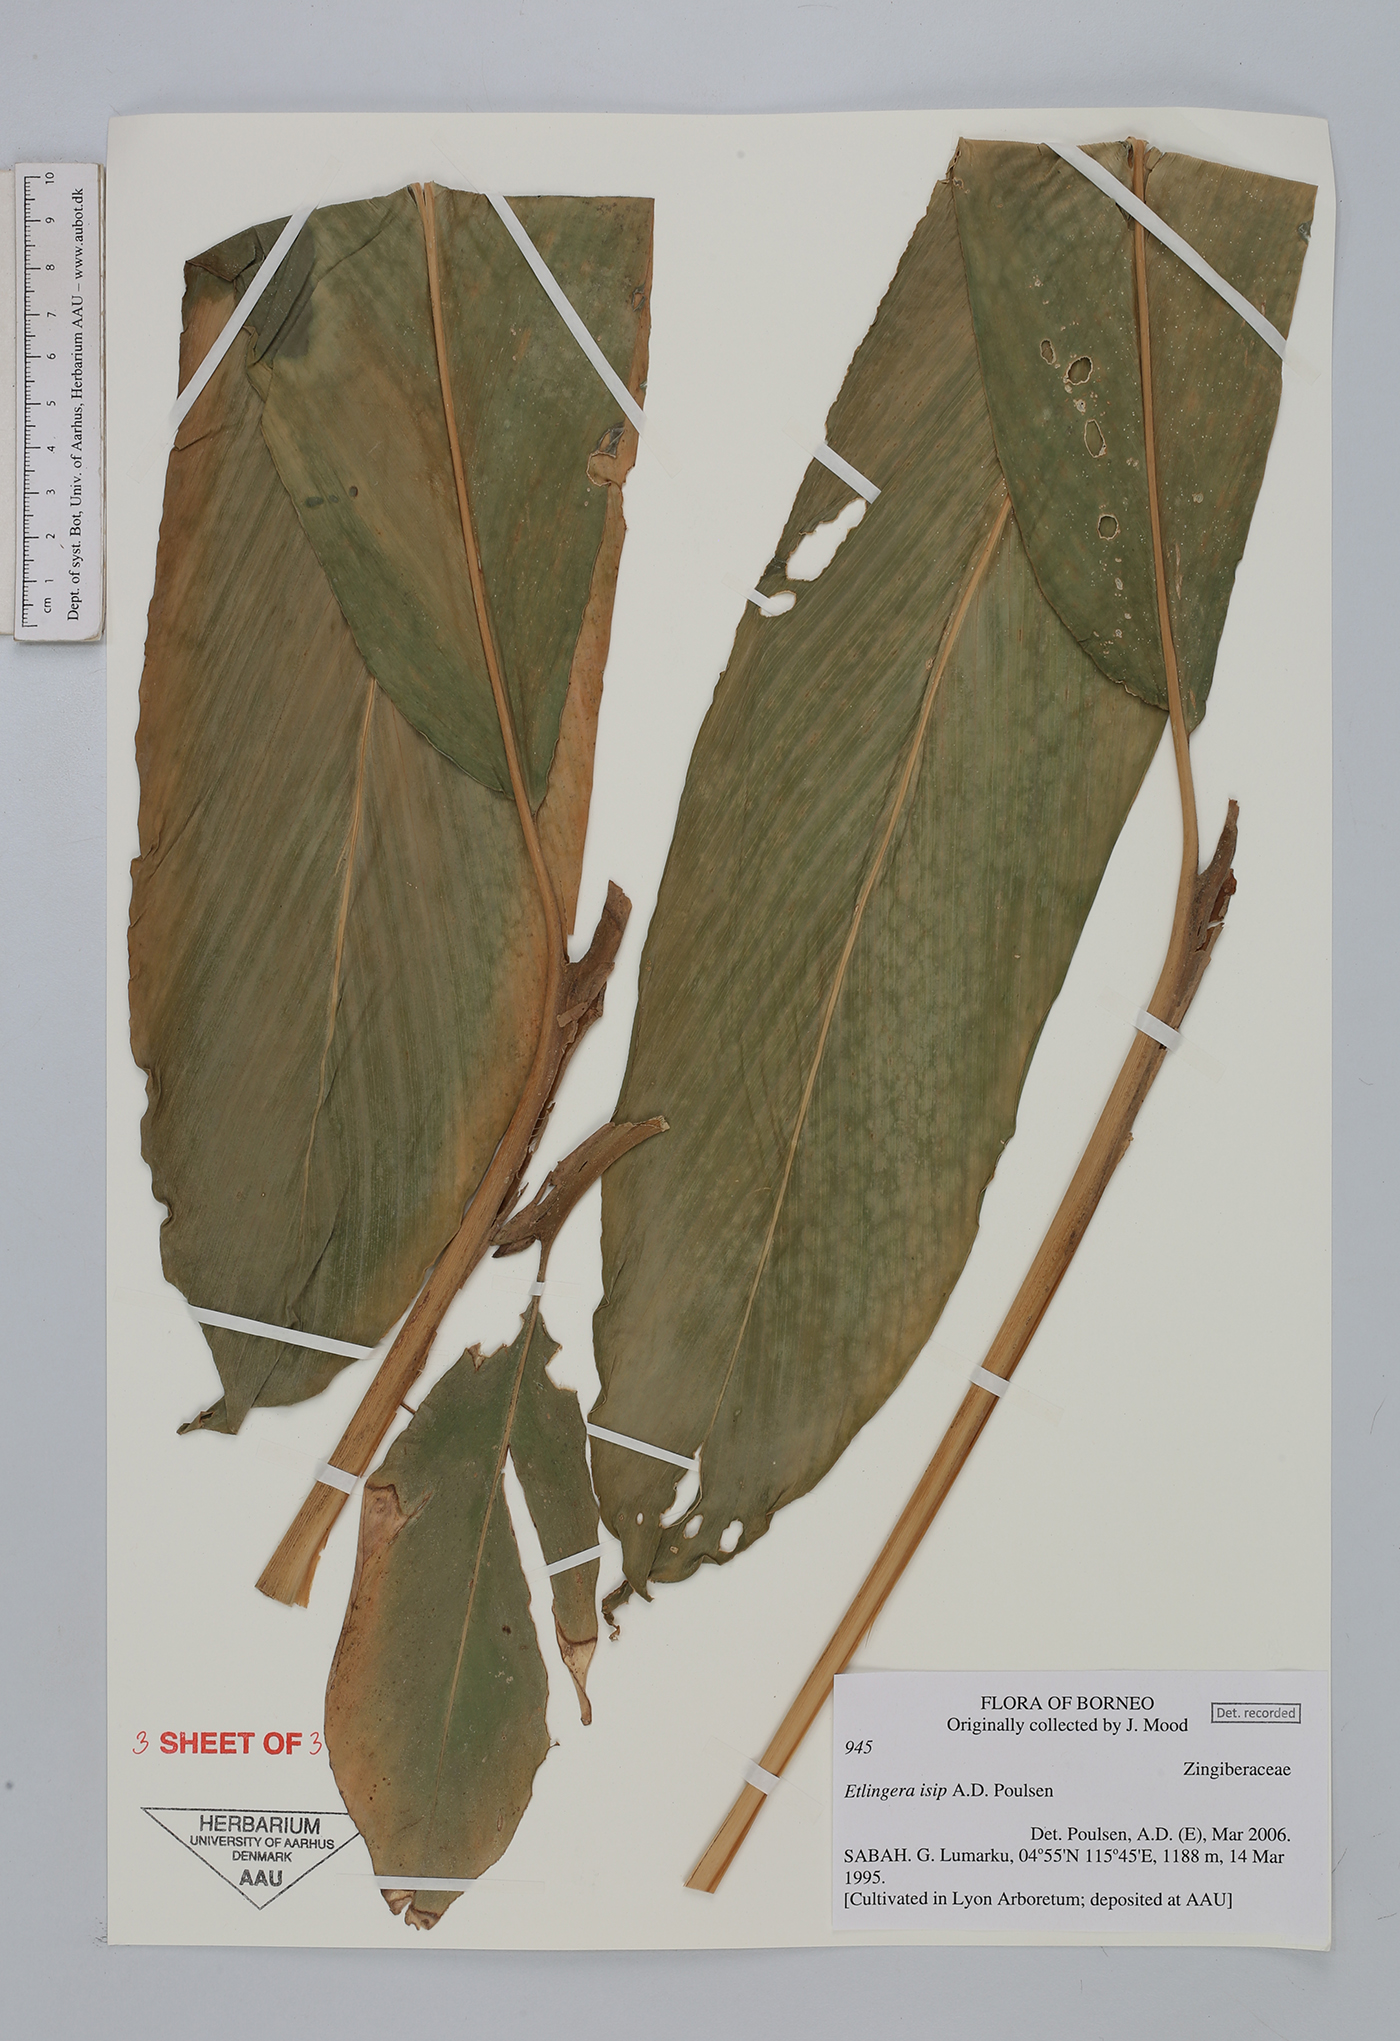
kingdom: Plantae
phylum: Tracheophyta
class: Liliopsida
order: Zingiberales
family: Zingiberaceae
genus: Etlingera
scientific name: Etlingera isip
